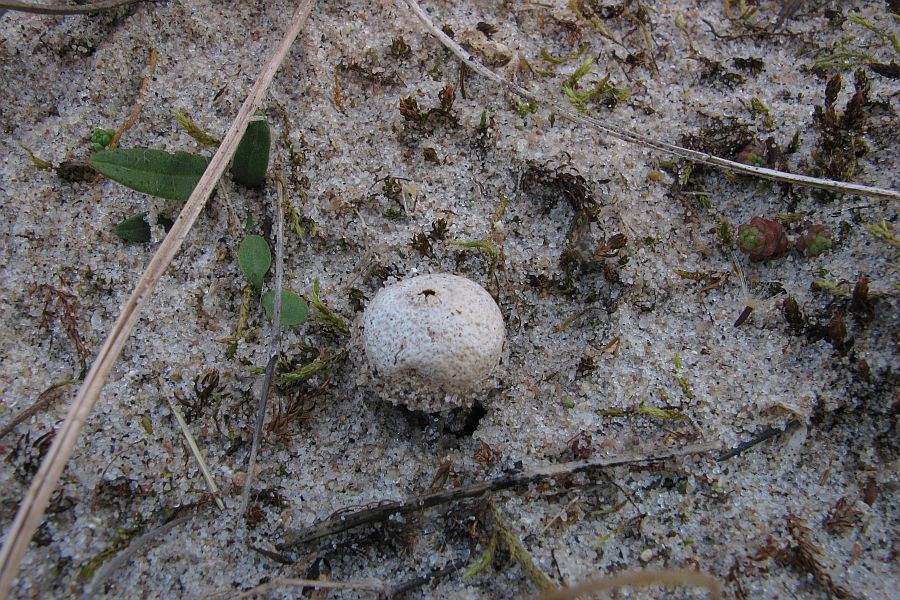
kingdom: Fungi
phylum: Basidiomycota
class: Agaricomycetes
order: Agaricales
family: Agaricaceae
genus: Tulostoma
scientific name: Tulostoma fimbriatum
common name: frynset stilkbovist
